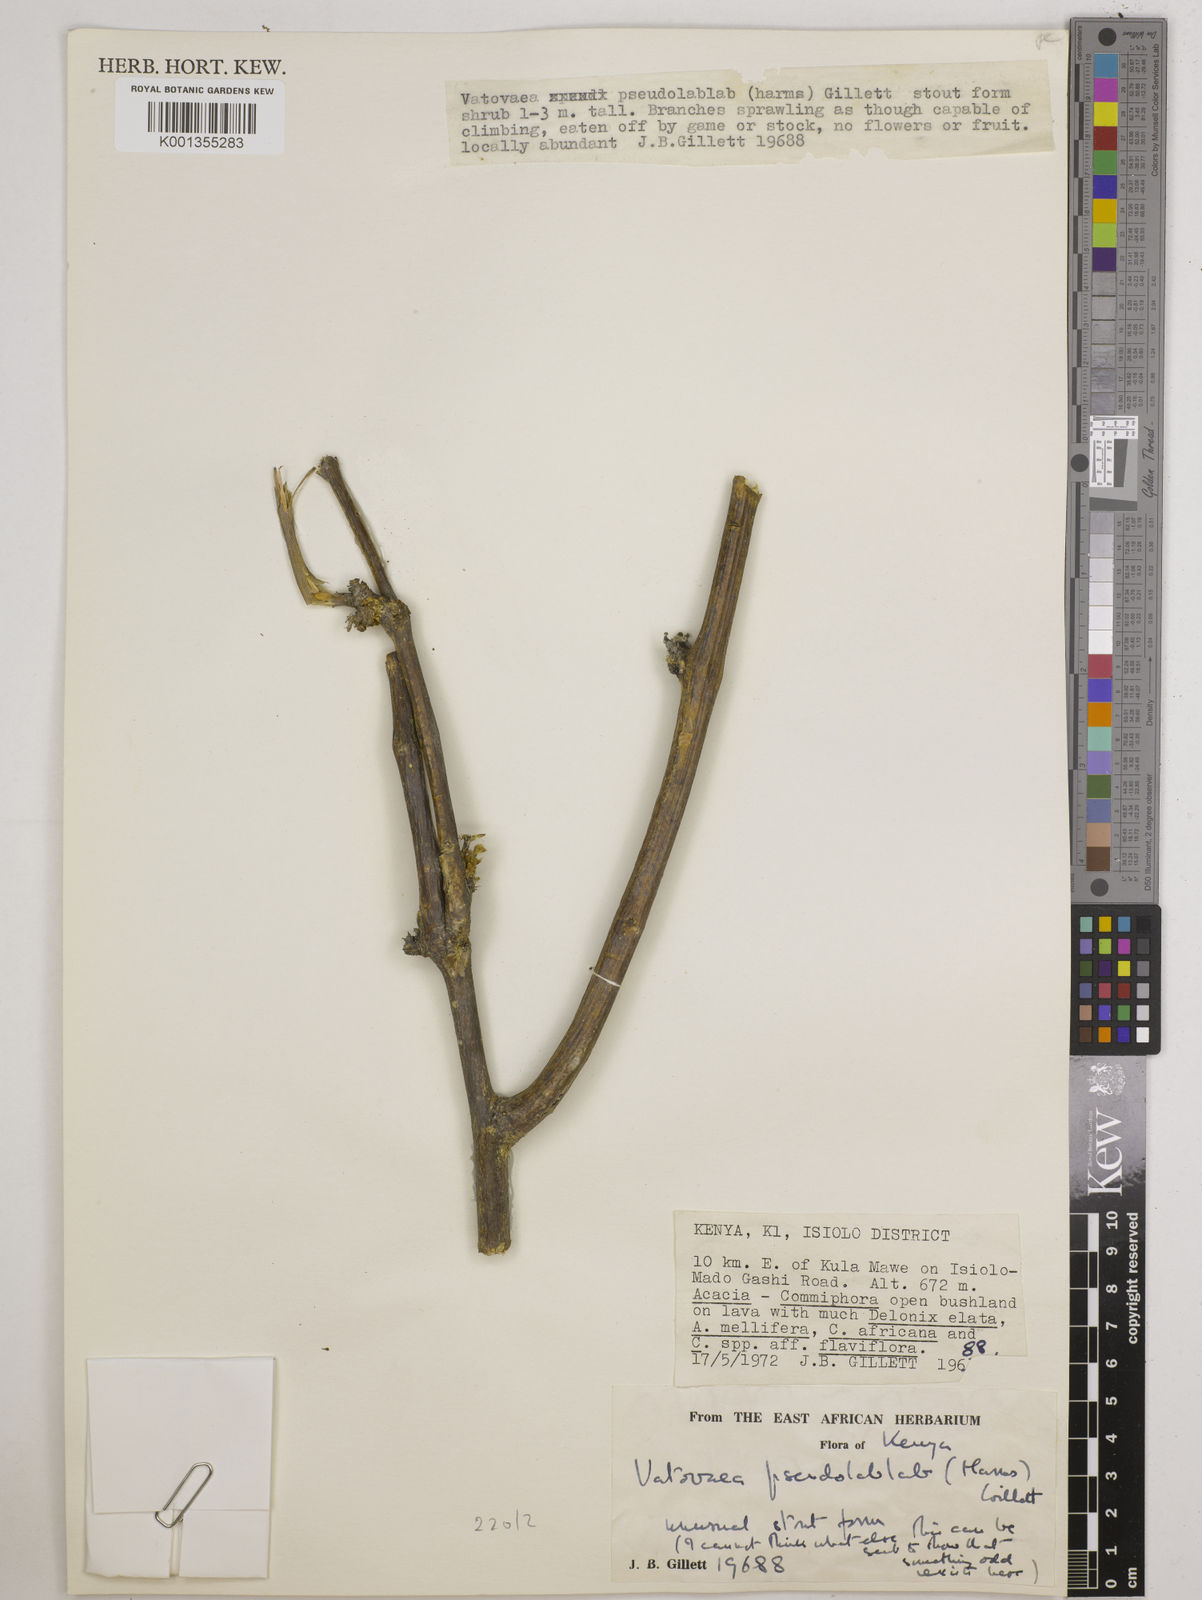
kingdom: Plantae
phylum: Tracheophyta
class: Magnoliopsida
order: Fabales
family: Fabaceae
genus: Vatovaea
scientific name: Vatovaea pseudolablab
